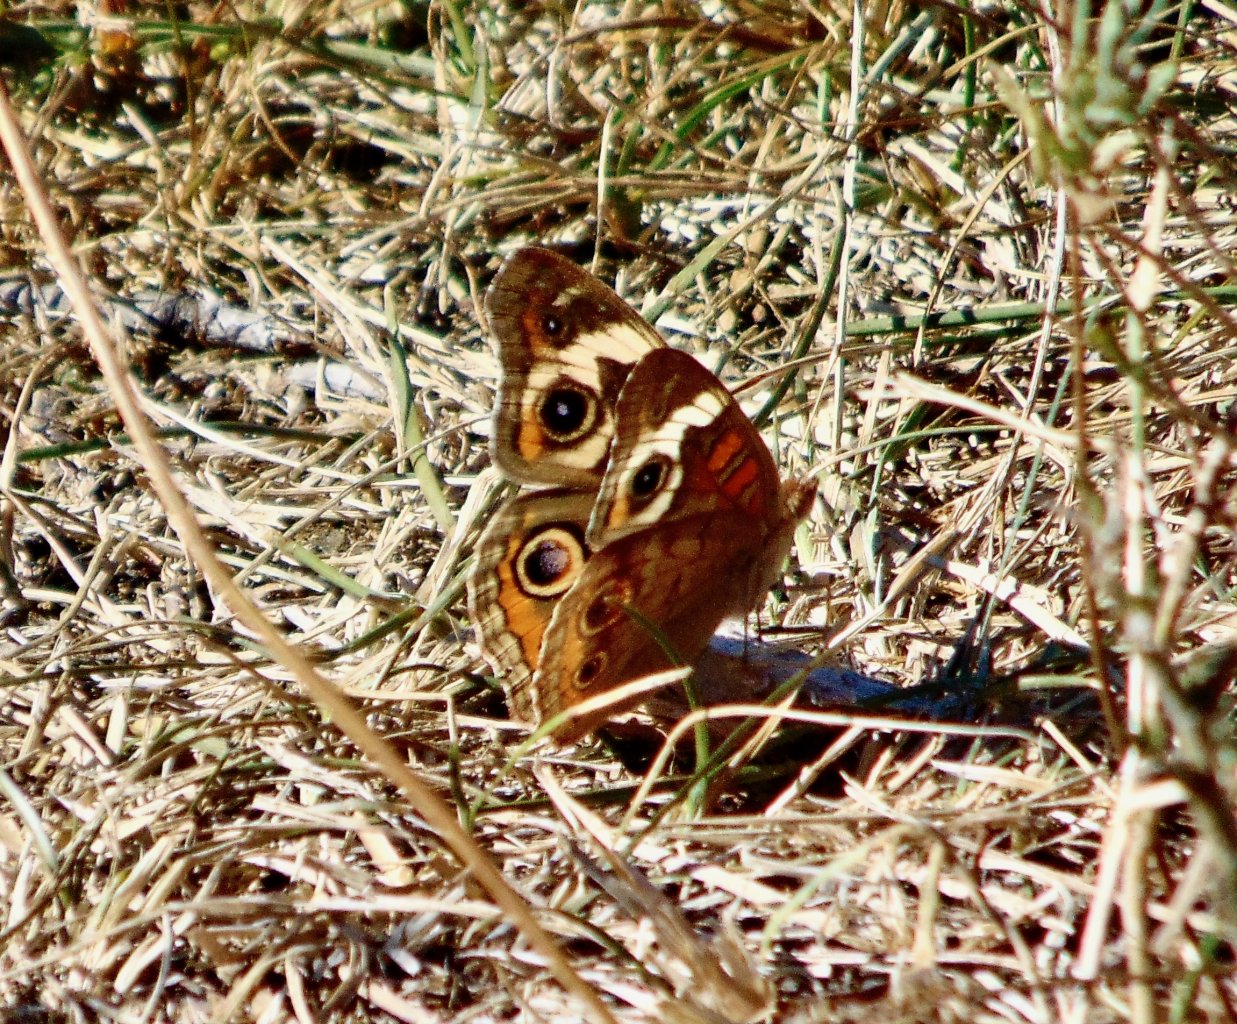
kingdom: Animalia
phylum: Arthropoda
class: Insecta
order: Lepidoptera
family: Nymphalidae
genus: Junonia
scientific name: Junonia coenia
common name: Common Buckeye
